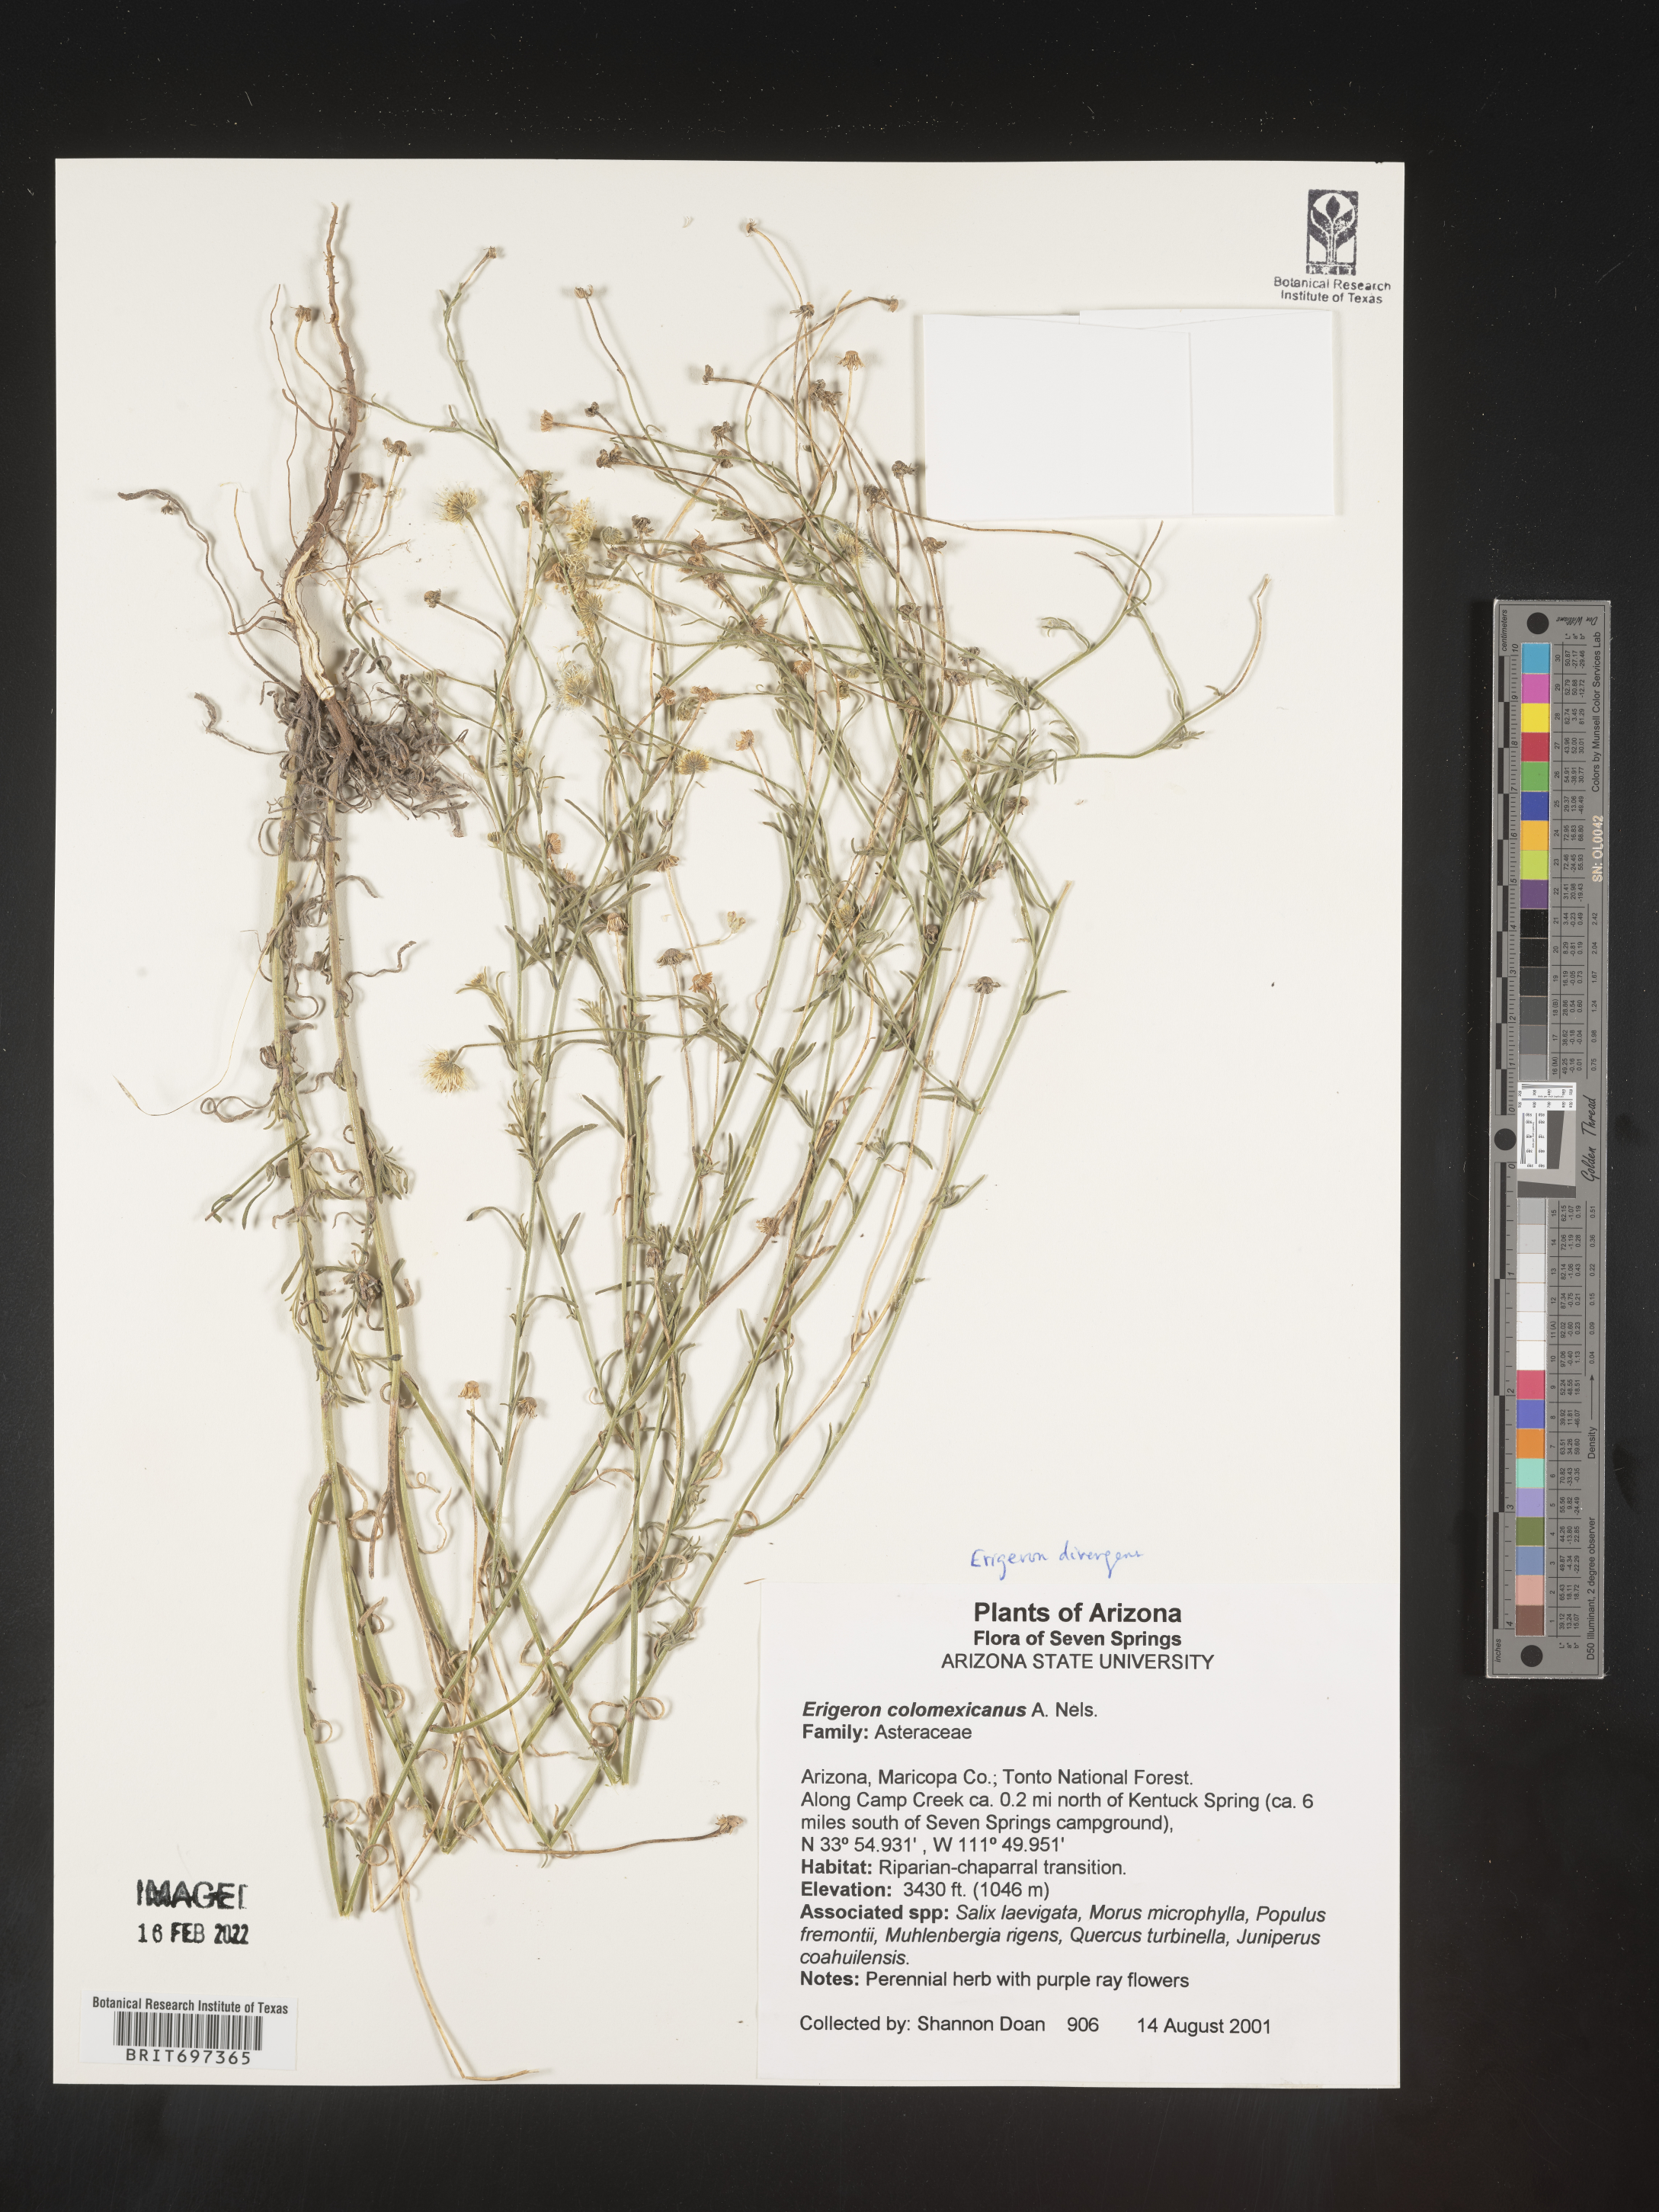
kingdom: Plantae
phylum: Tracheophyta
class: Magnoliopsida
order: Asterales
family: Asteraceae
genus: Erigeron
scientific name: Erigeron divergens
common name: Diffuse fleabane
